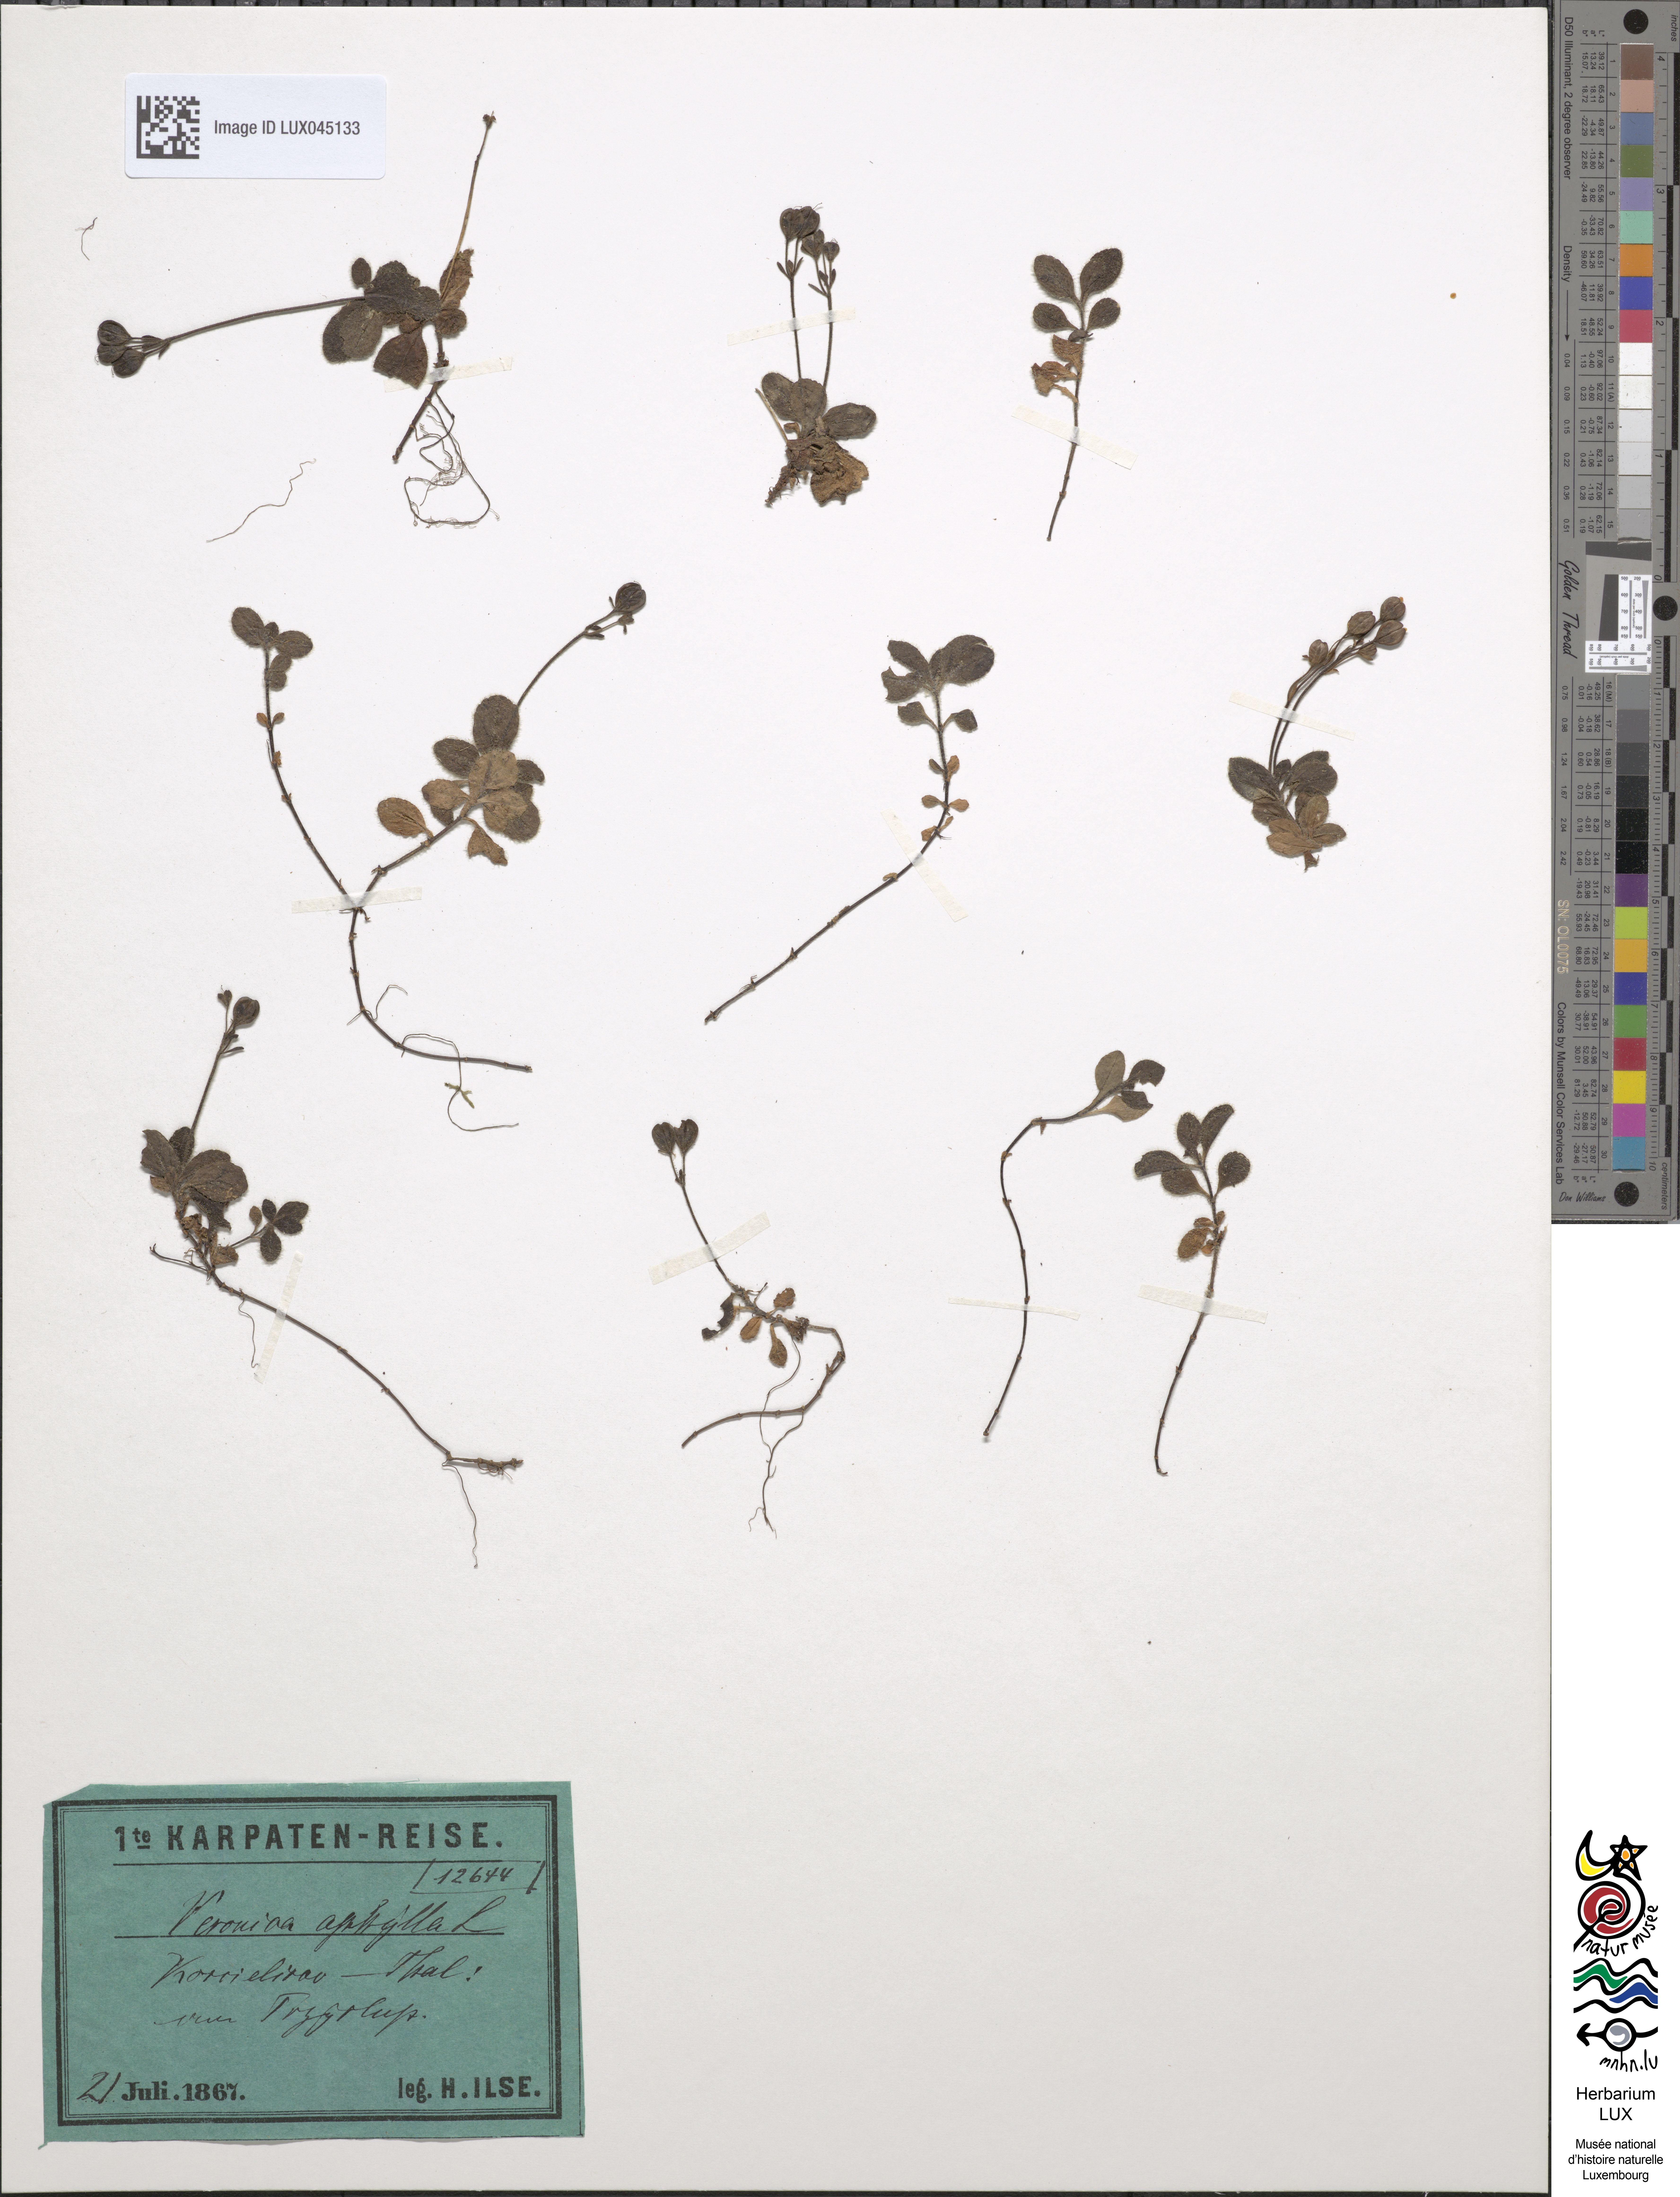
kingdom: Plantae
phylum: Tracheophyta
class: Magnoliopsida
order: Lamiales
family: Plantaginaceae
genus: Veronica
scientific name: Veronica aphylla
